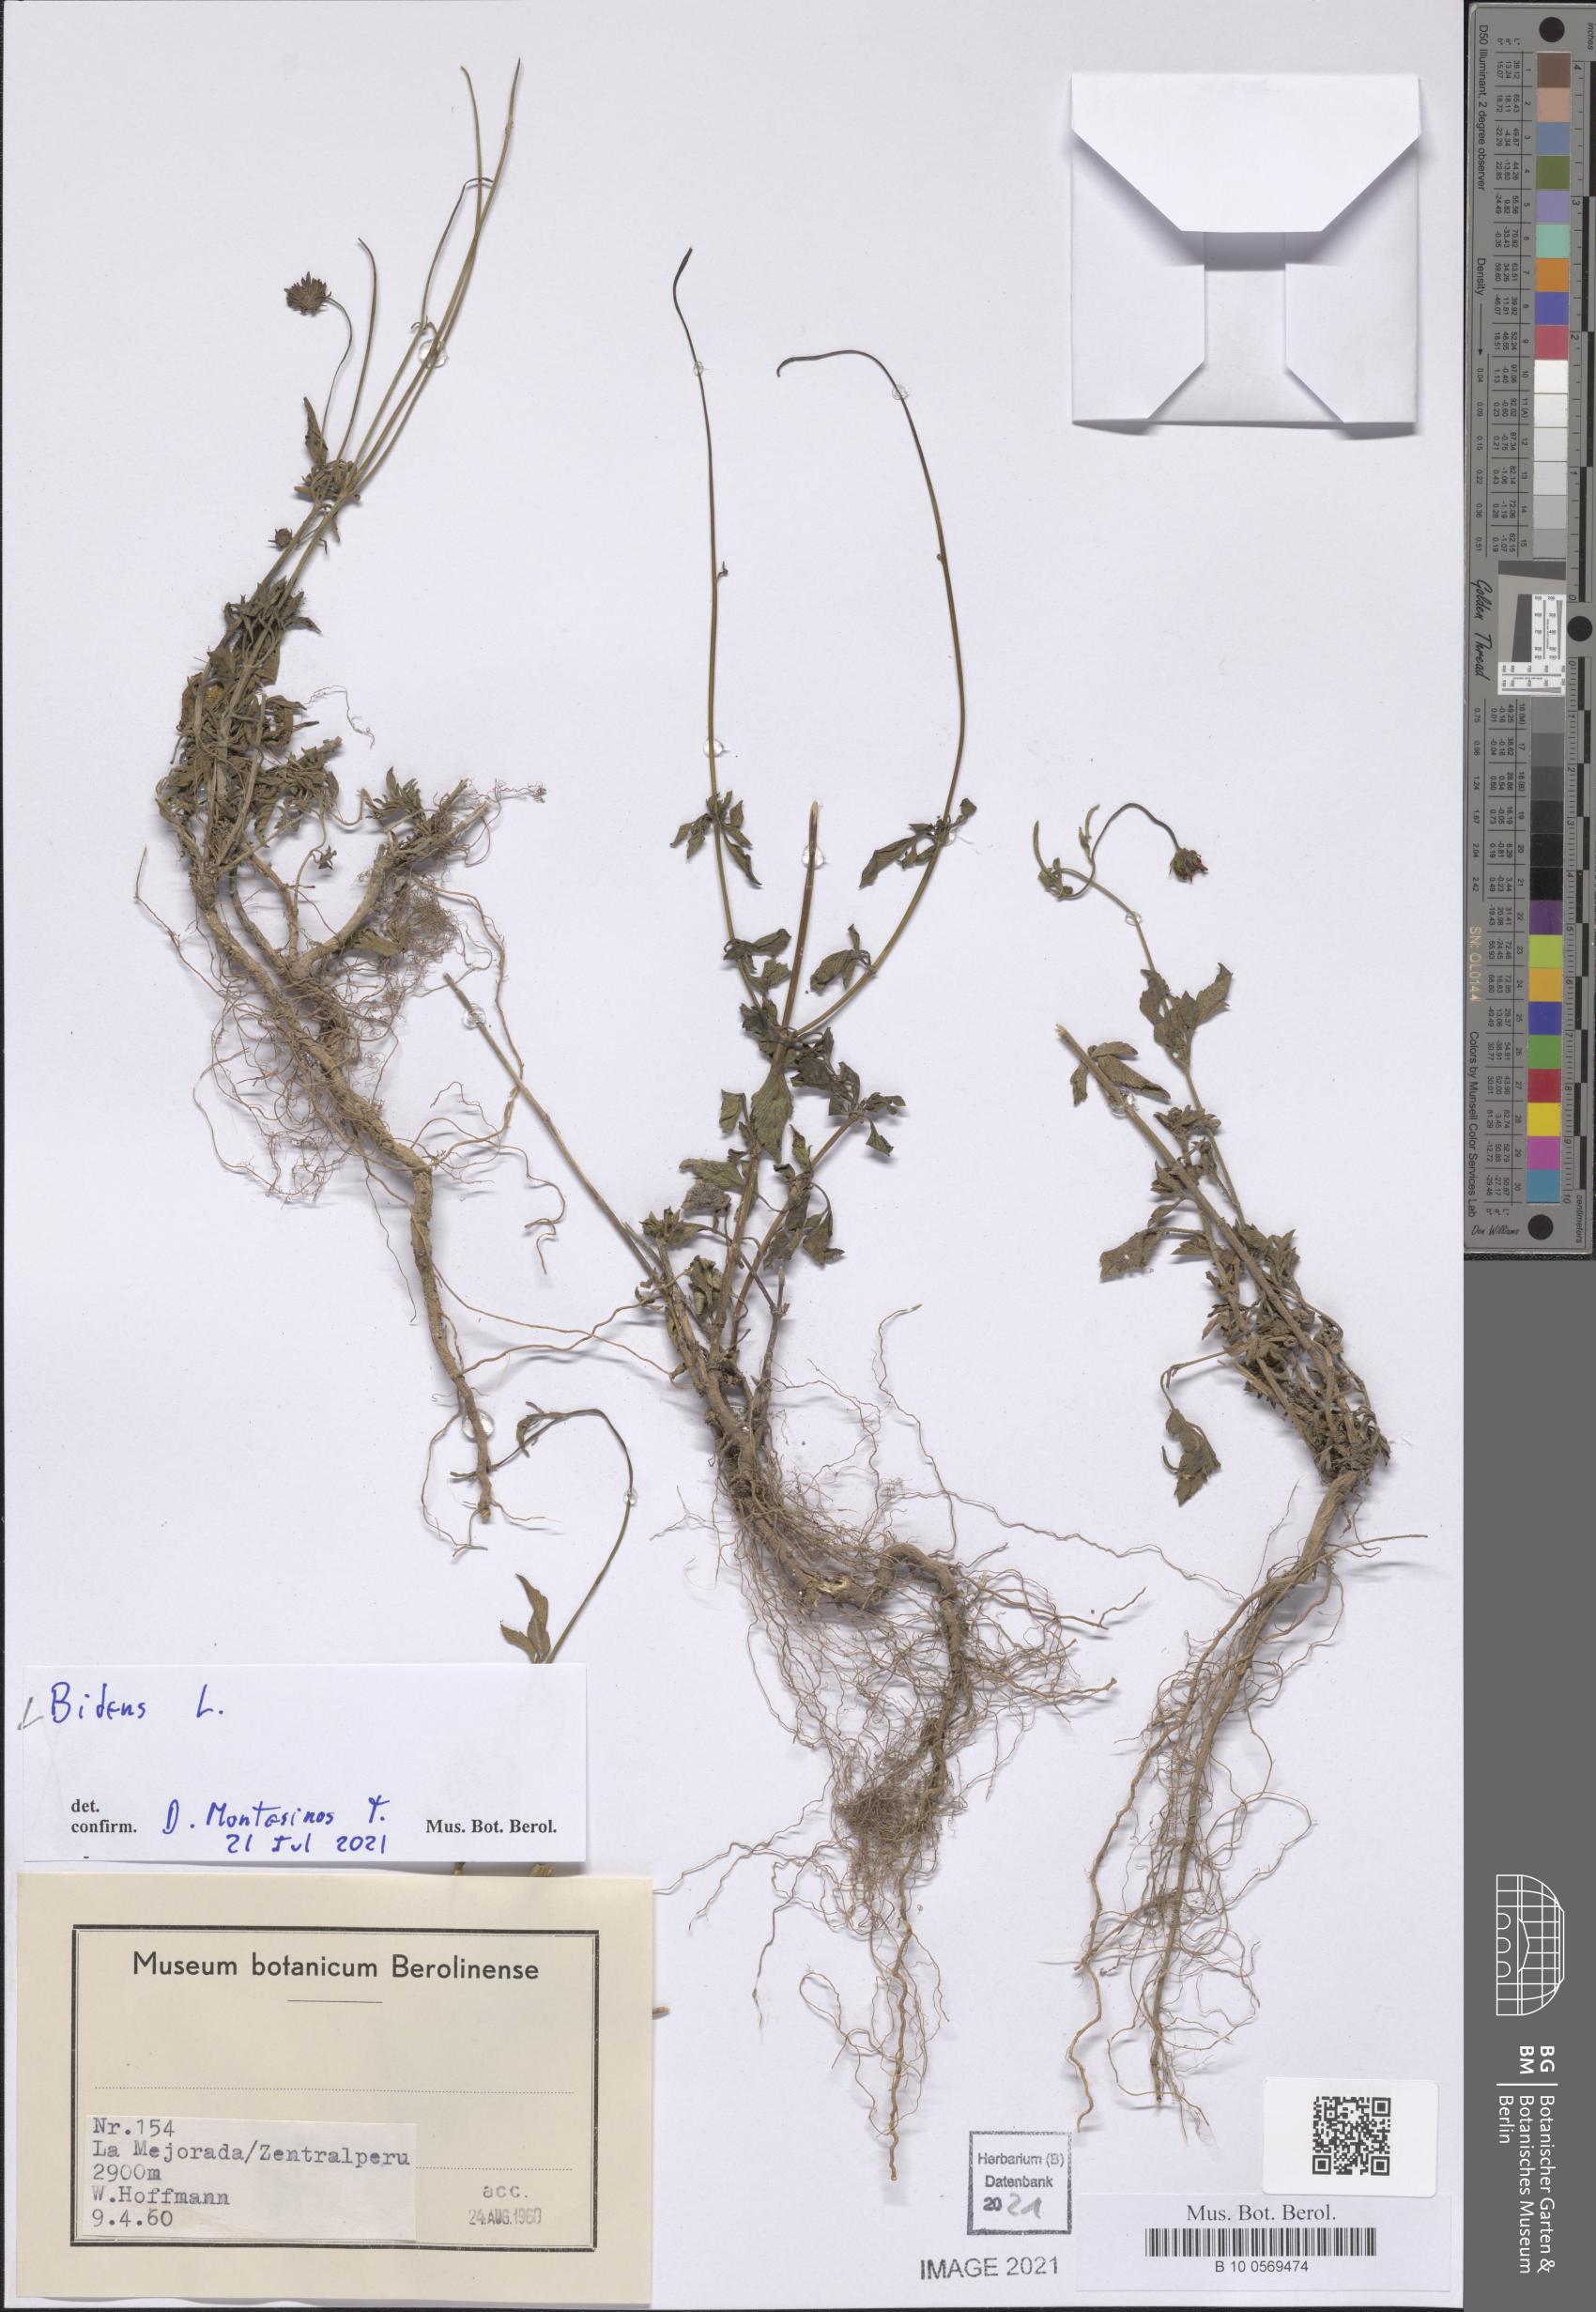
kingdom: Plantae
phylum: Tracheophyta
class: Magnoliopsida
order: Asterales
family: Asteraceae
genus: Bidens
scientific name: Bidens
